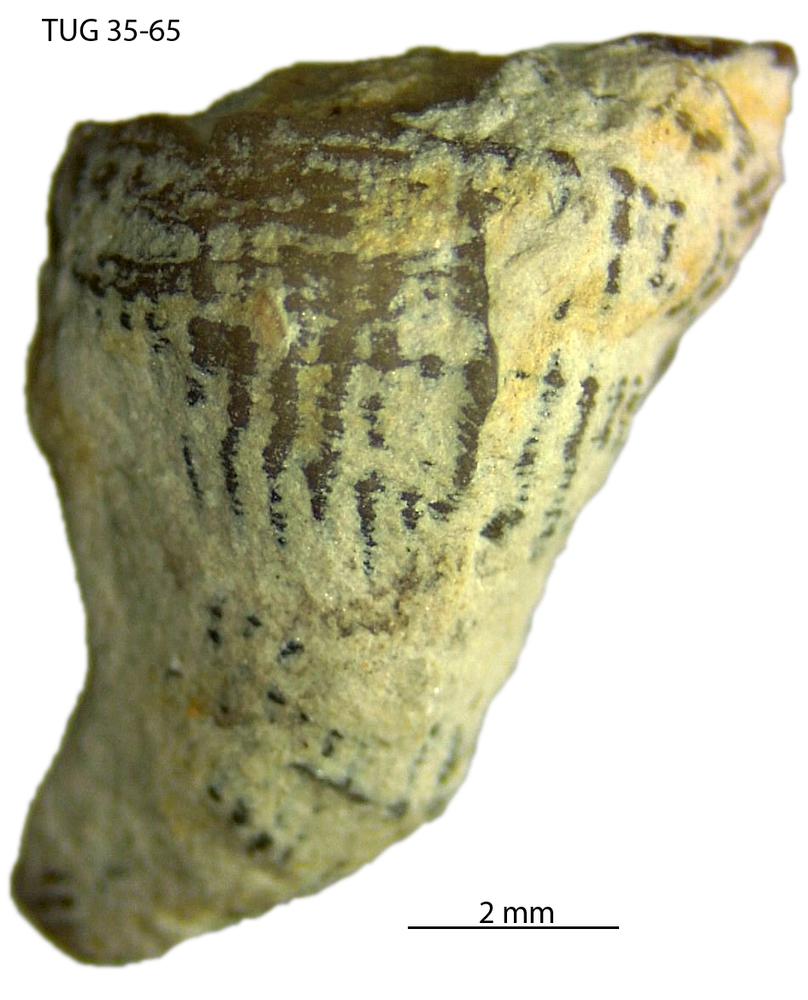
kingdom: Animalia
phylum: Cnidaria
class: Anthozoa
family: Streptelasmatidae
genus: Streptelasma
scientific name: Streptelasma
